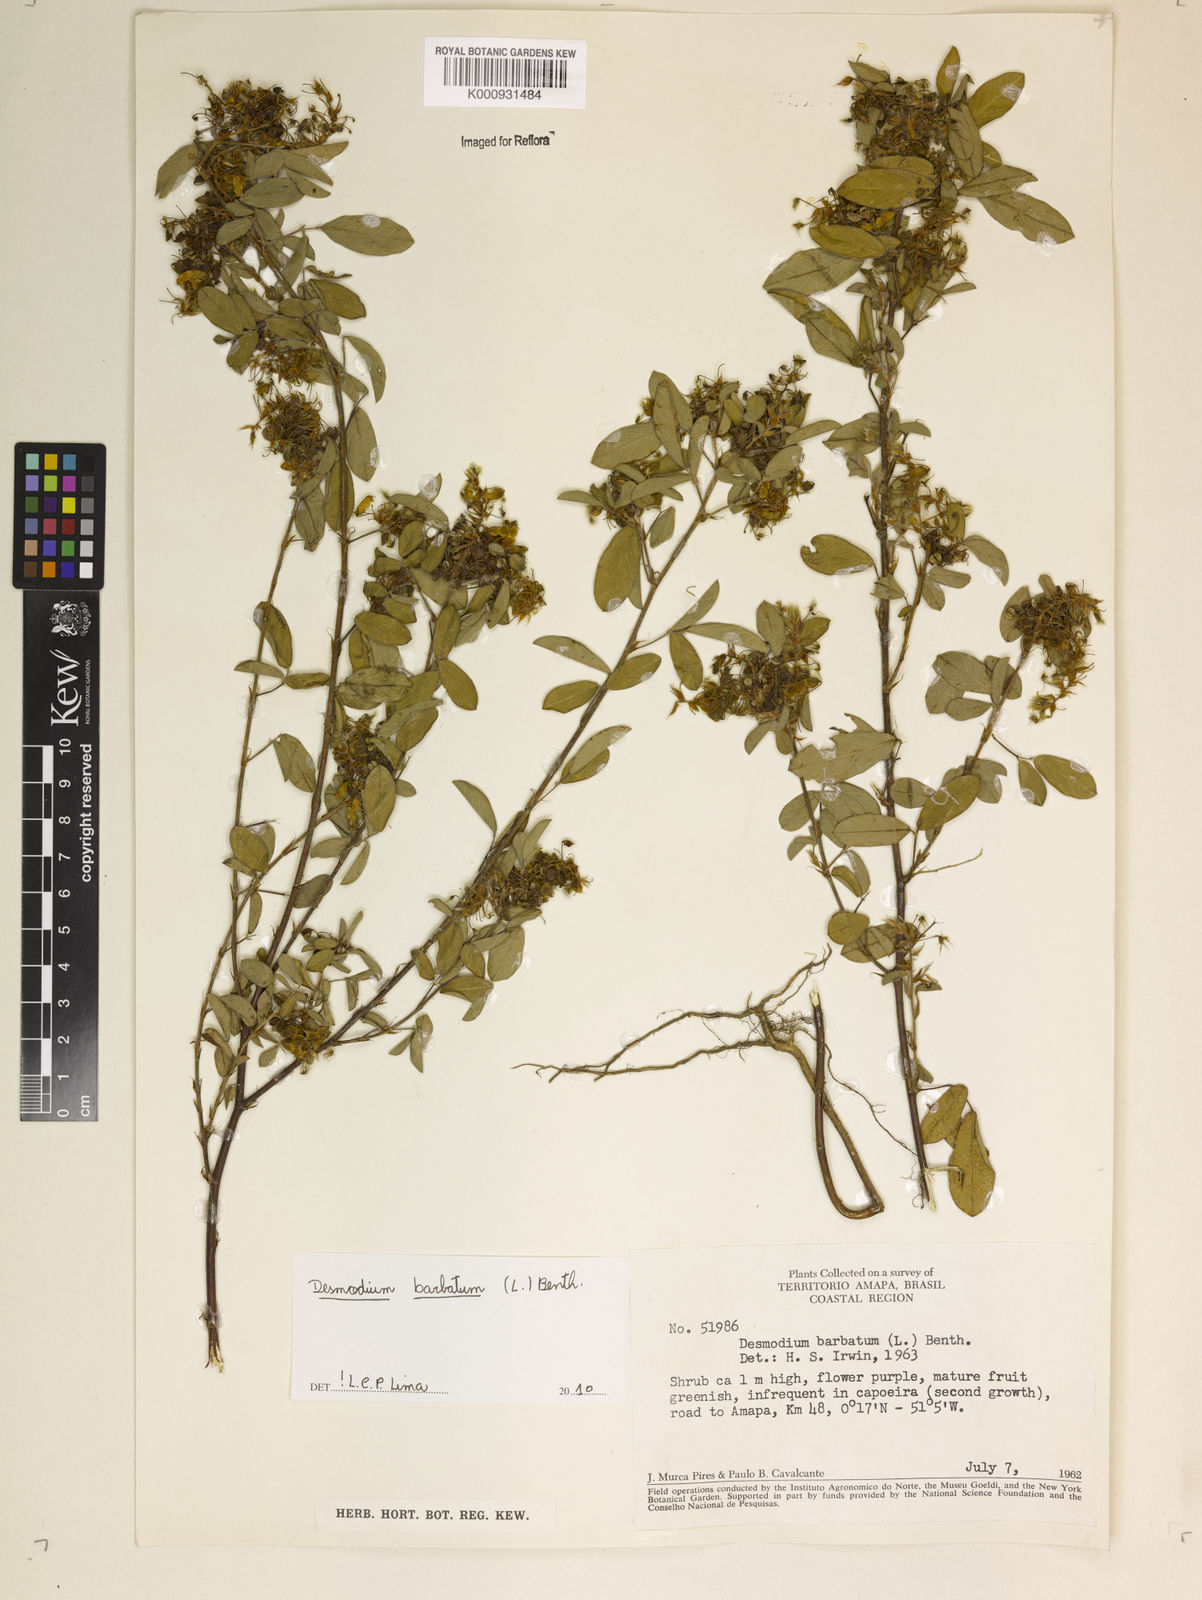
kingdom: Plantae
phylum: Tracheophyta
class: Magnoliopsida
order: Fabales
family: Fabaceae
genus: Grona
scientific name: Grona barbata
